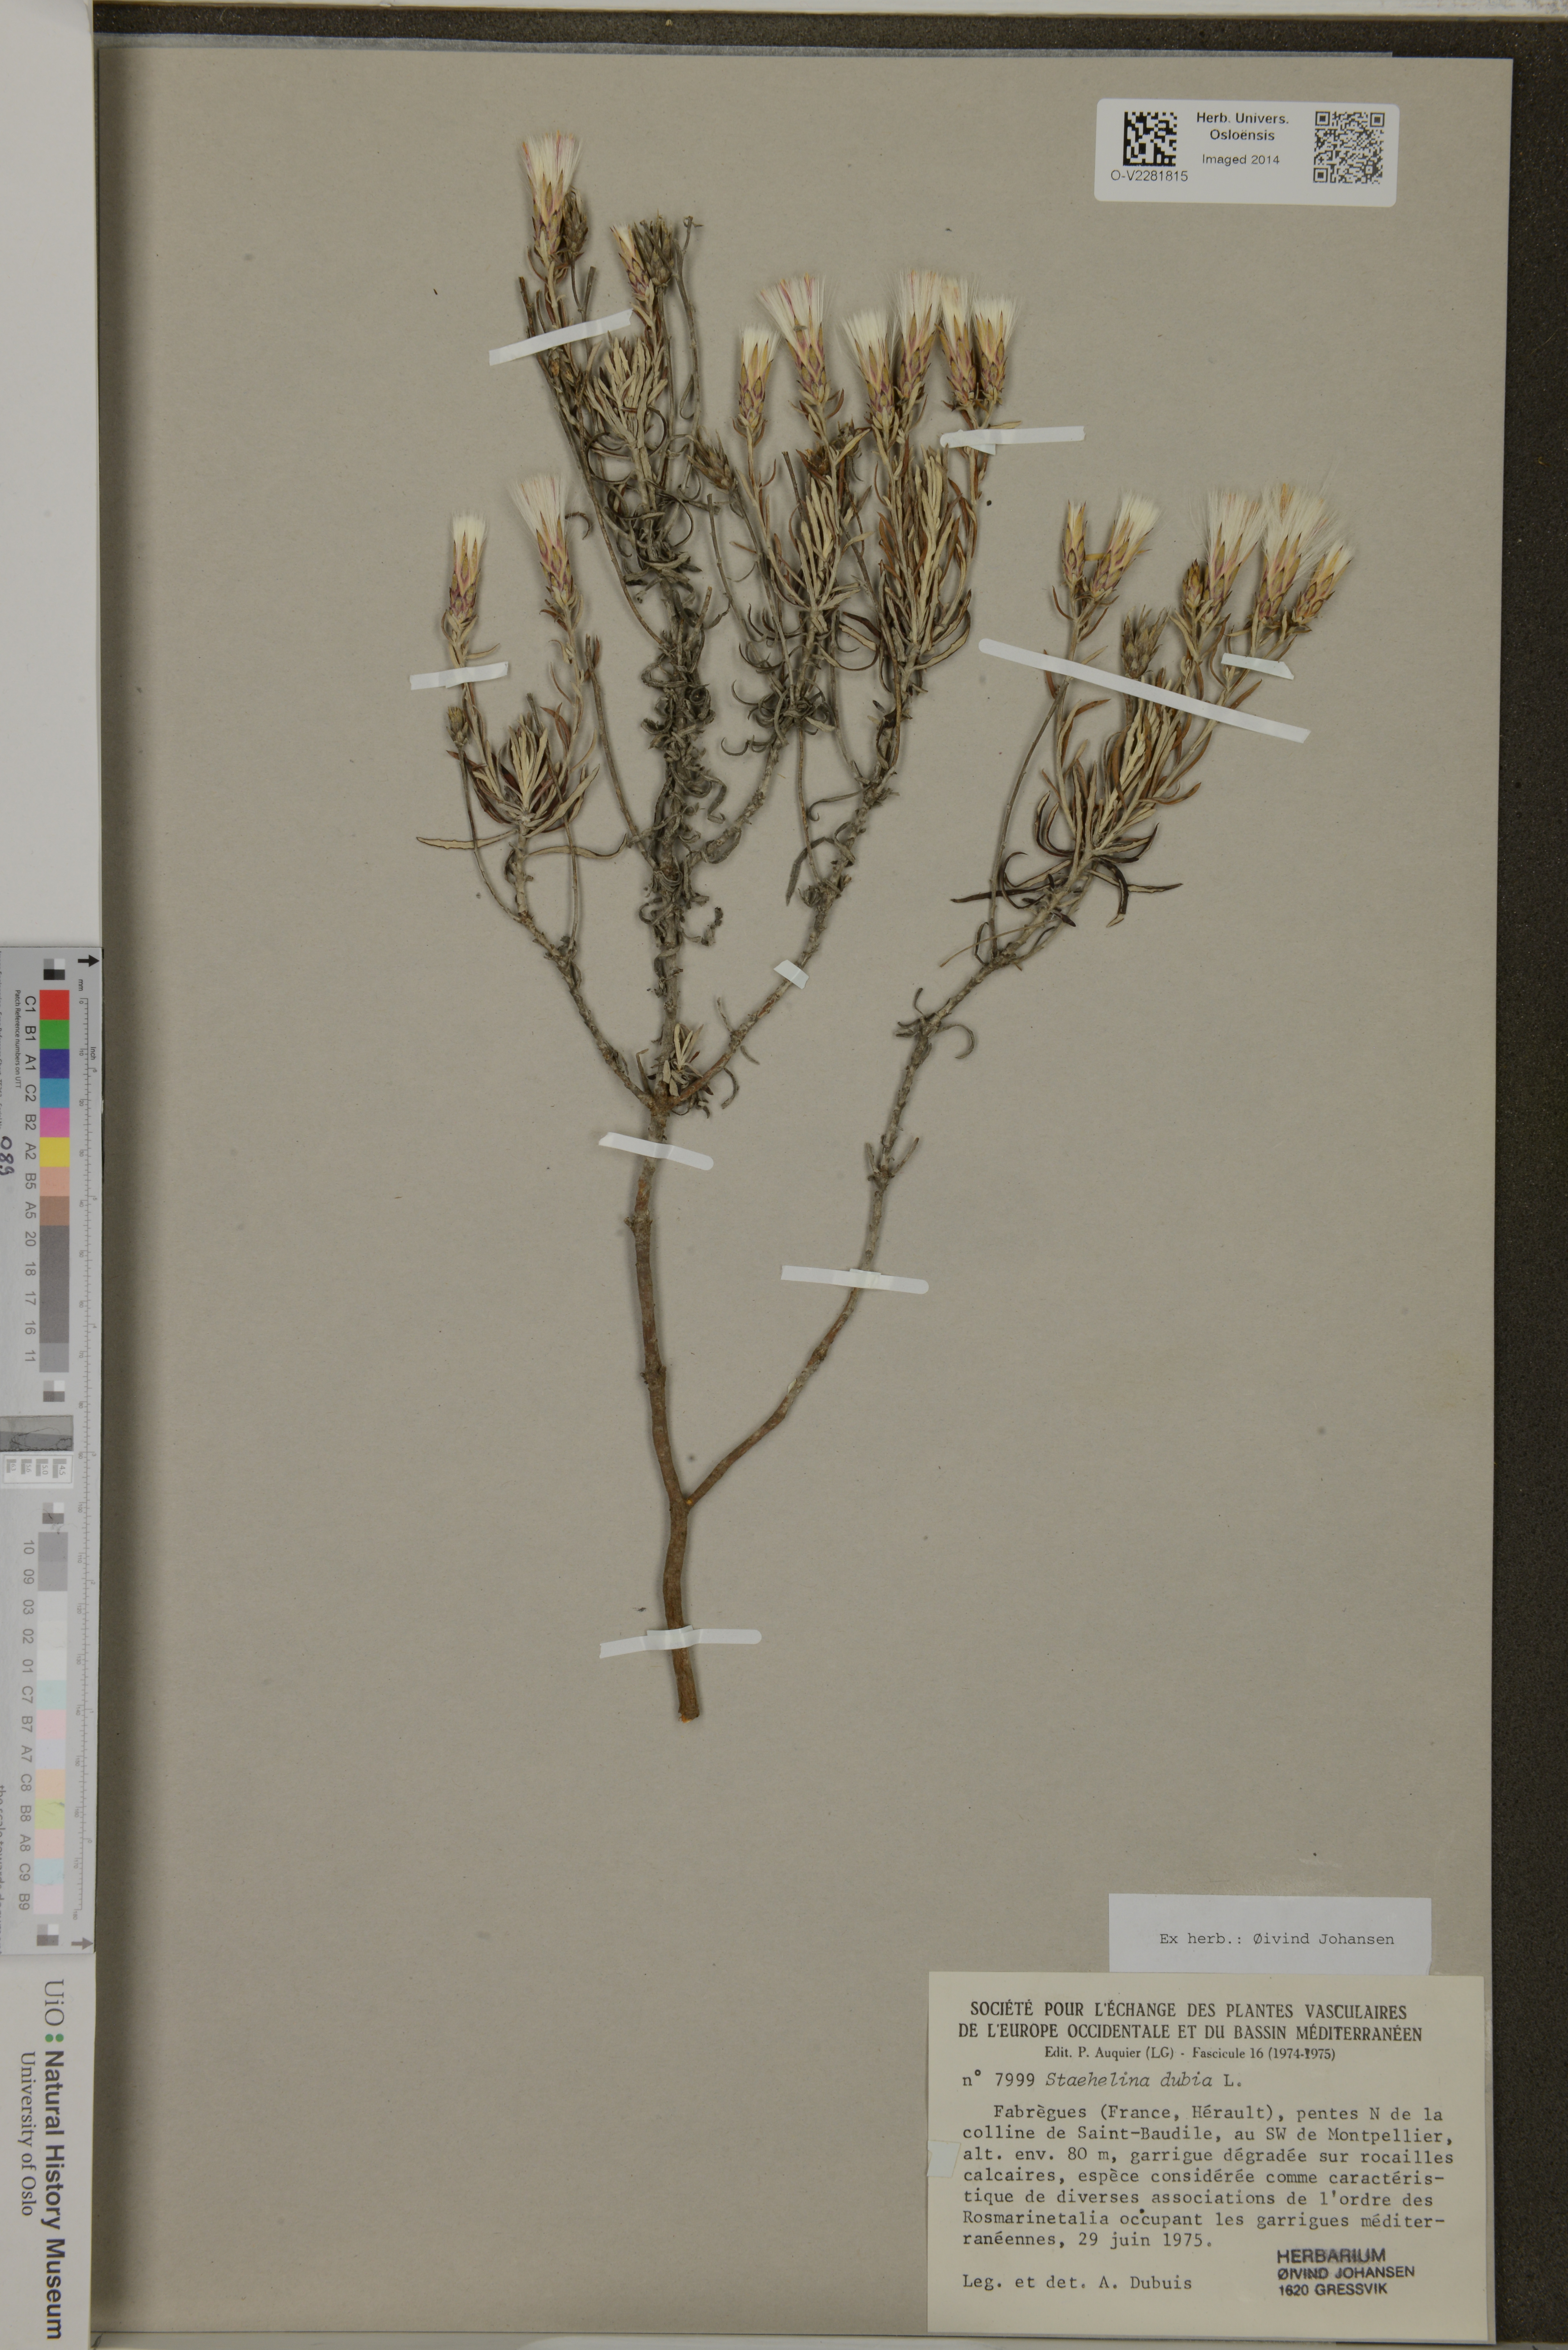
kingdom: Plantae
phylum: Tracheophyta
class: Magnoliopsida
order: Asterales
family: Asteraceae
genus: Staehelina
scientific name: Staehelina dubia
